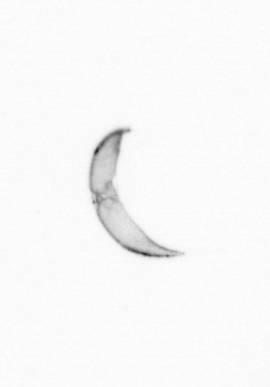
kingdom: Chromista
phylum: Ochrophyta
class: Bacillariophyceae
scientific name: Bacillariophyceae
